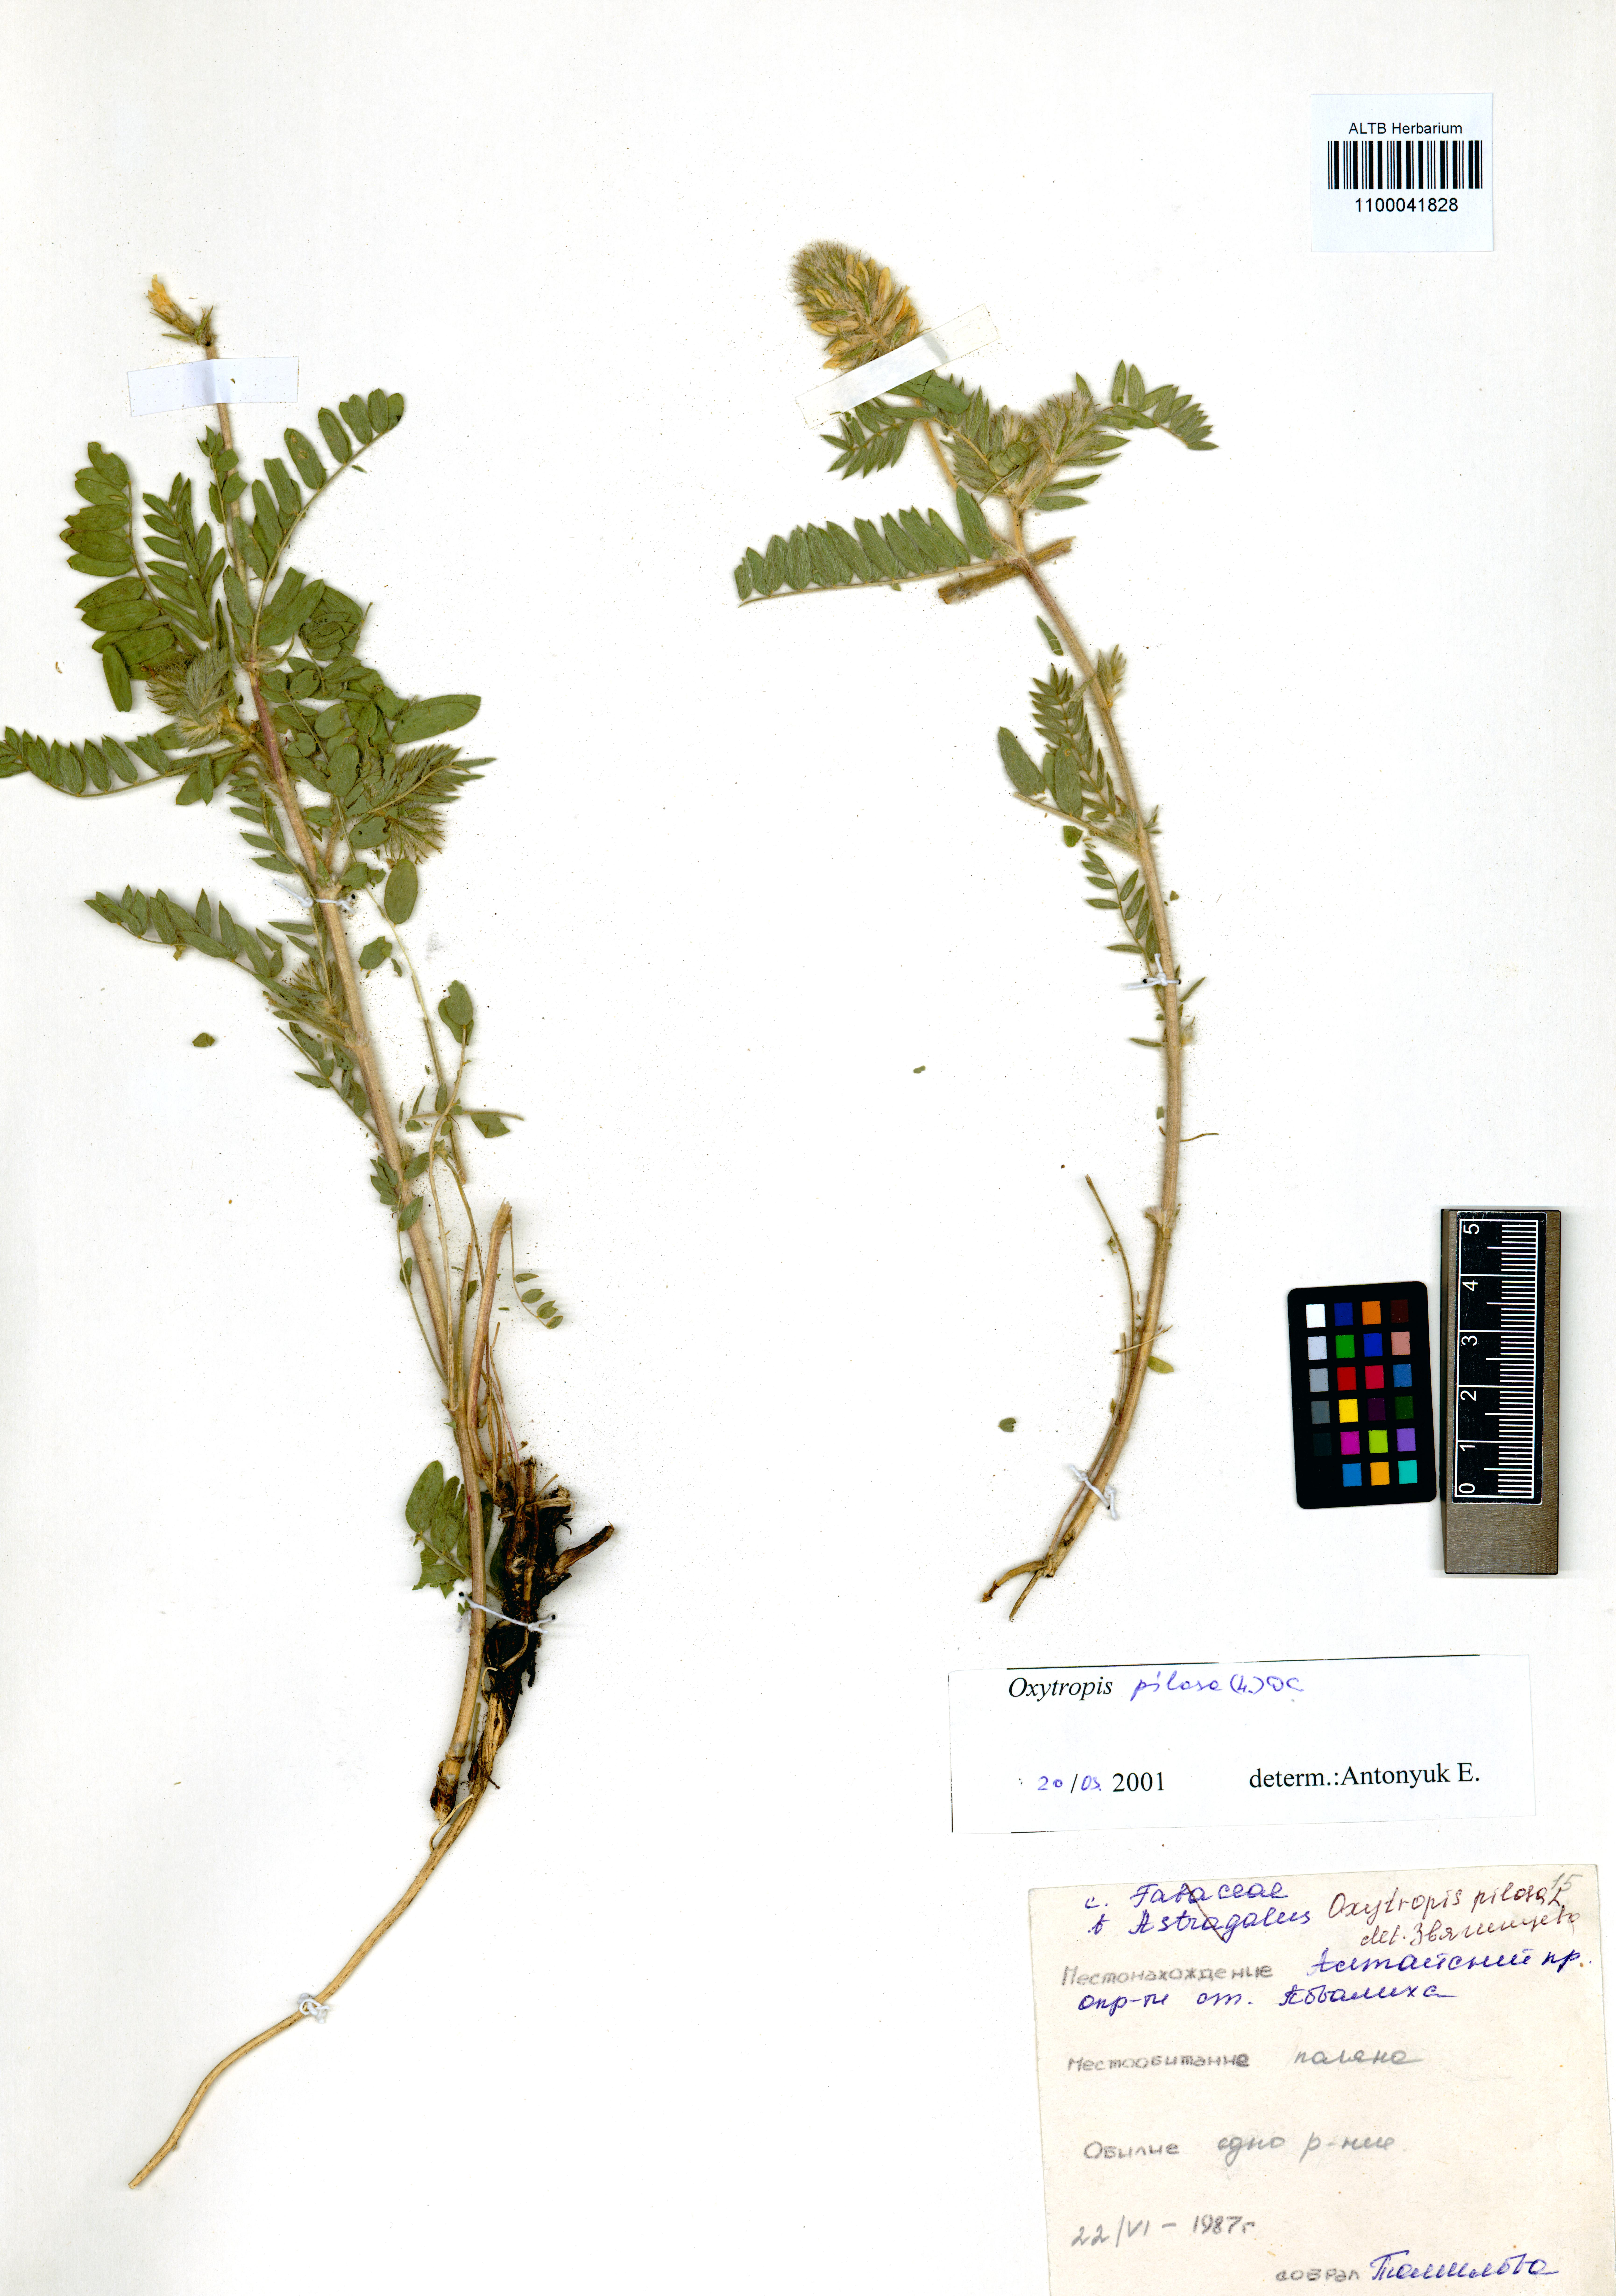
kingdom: Plantae
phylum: Tracheophyta
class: Magnoliopsida
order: Fabales
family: Fabaceae
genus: Oxytropis
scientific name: Oxytropis pilosa
